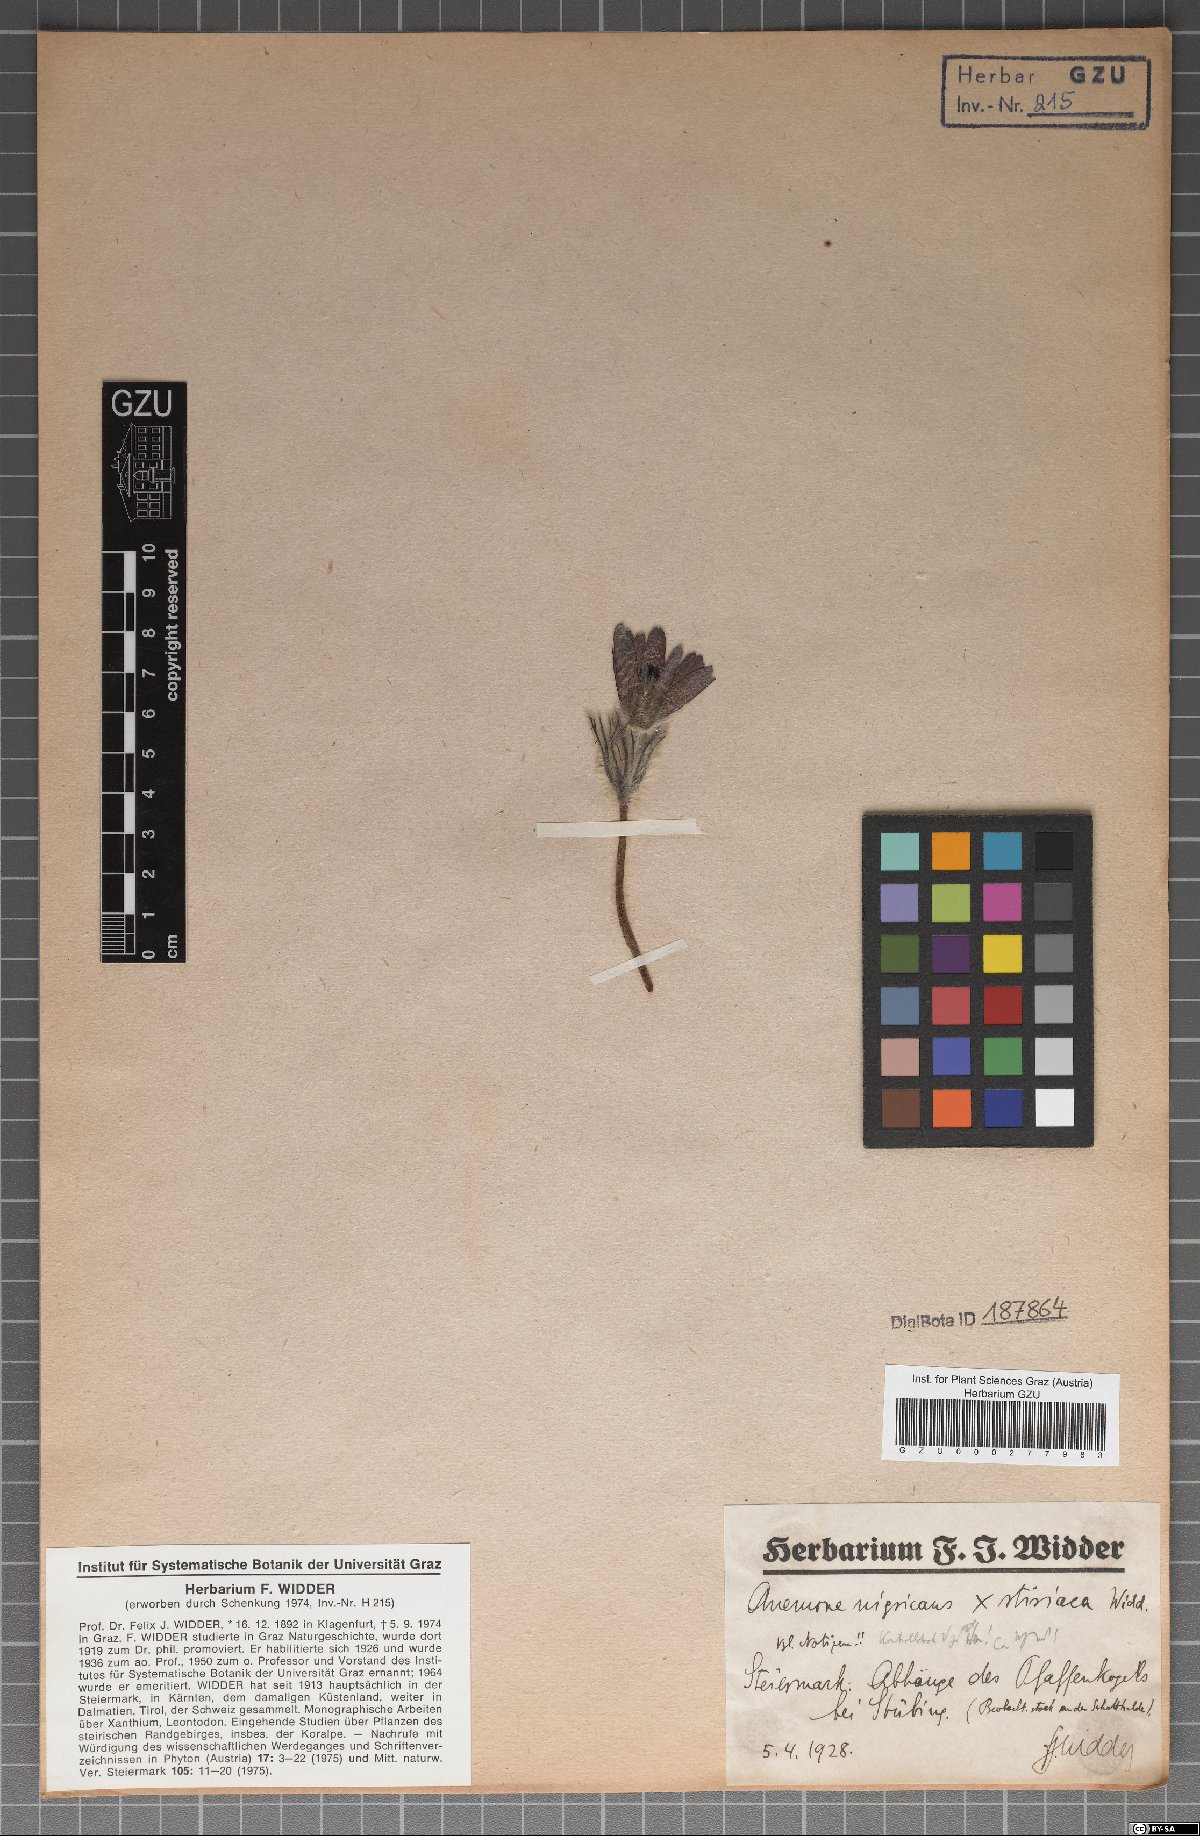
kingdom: Plantae
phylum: Tracheophyta
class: Magnoliopsida
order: Ranunculales
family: Ranunculaceae
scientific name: Ranunculaceae
